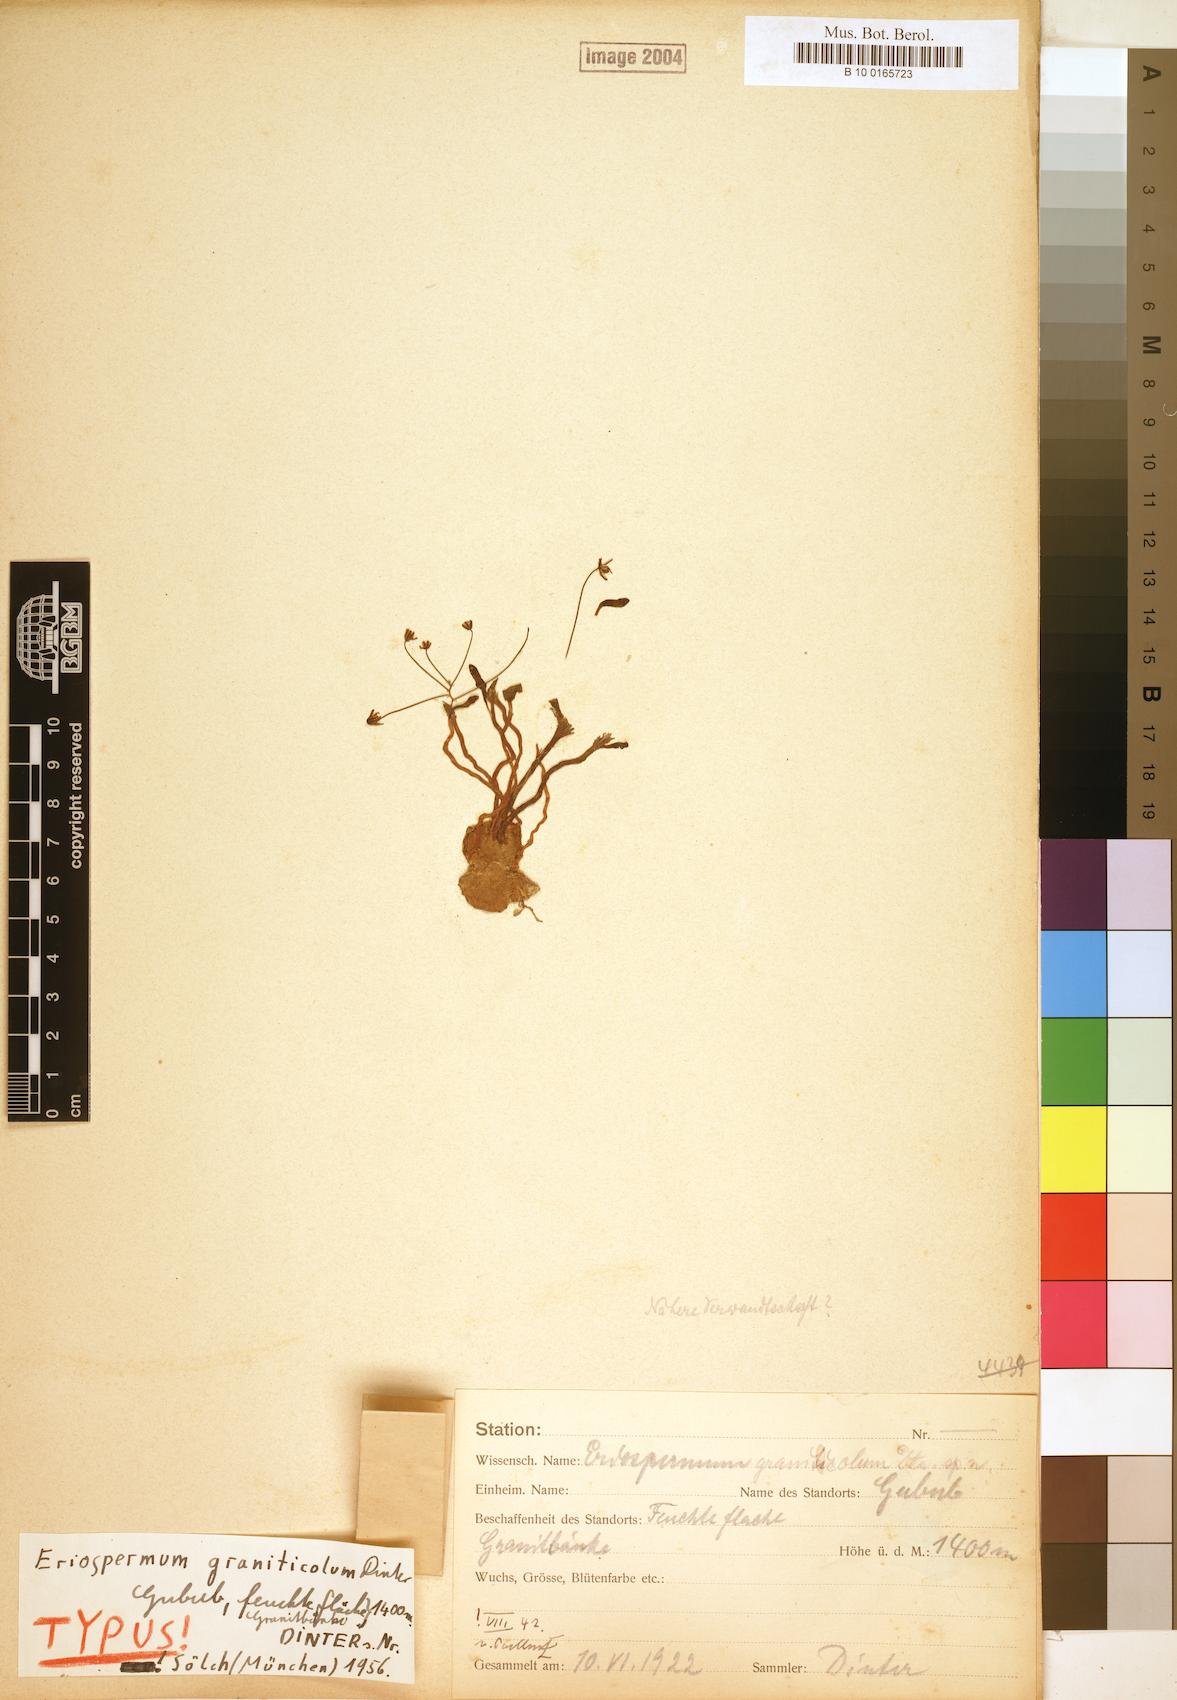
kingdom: Plantae
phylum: Tracheophyta
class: Liliopsida
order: Asparagales
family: Asparagaceae
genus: Eriospermum
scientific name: Eriospermum graniticola
